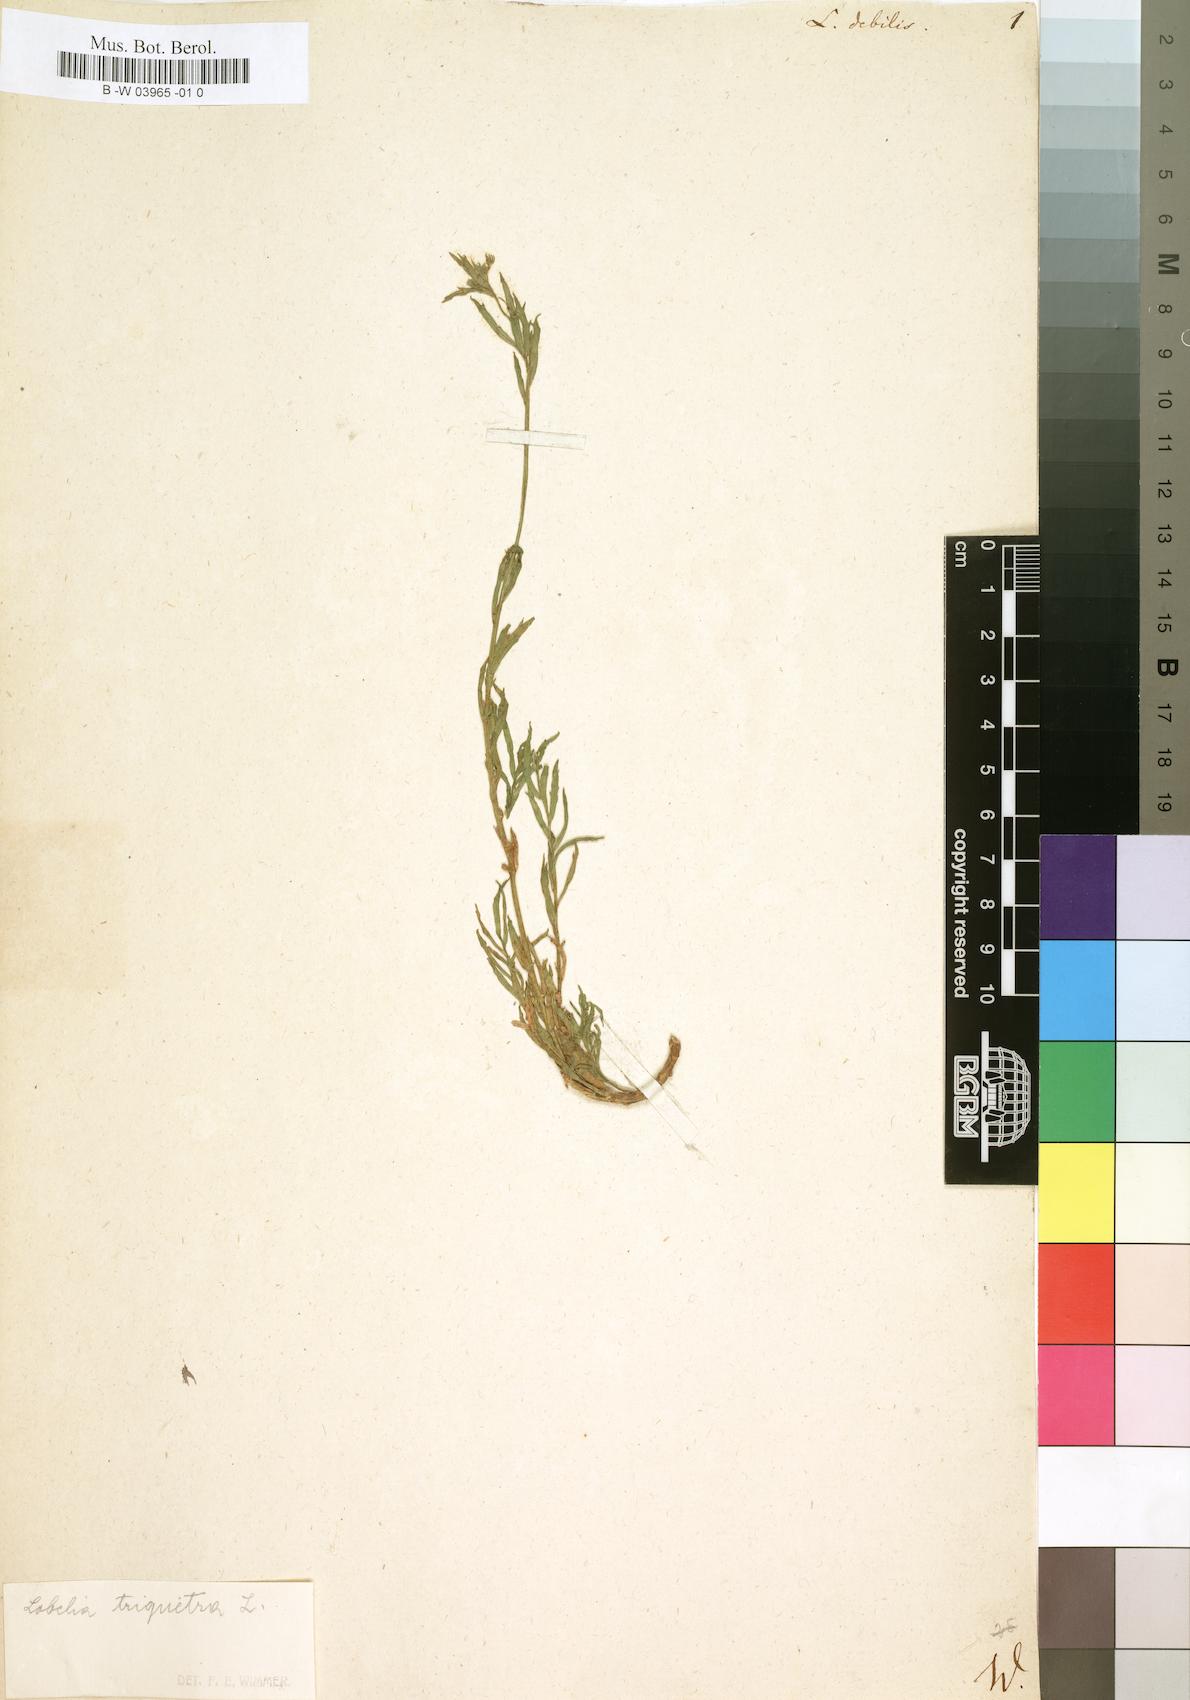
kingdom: Plantae
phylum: Tracheophyta
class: Magnoliopsida
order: Asterales
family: Campanulaceae
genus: Lobelia
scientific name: Lobelia debilis
